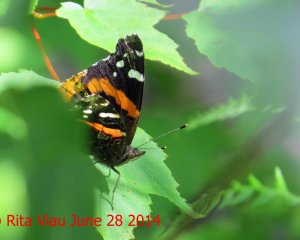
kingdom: Animalia
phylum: Arthropoda
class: Insecta
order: Lepidoptera
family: Nymphalidae
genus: Vanessa
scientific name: Vanessa atalanta
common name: Red Admiral
